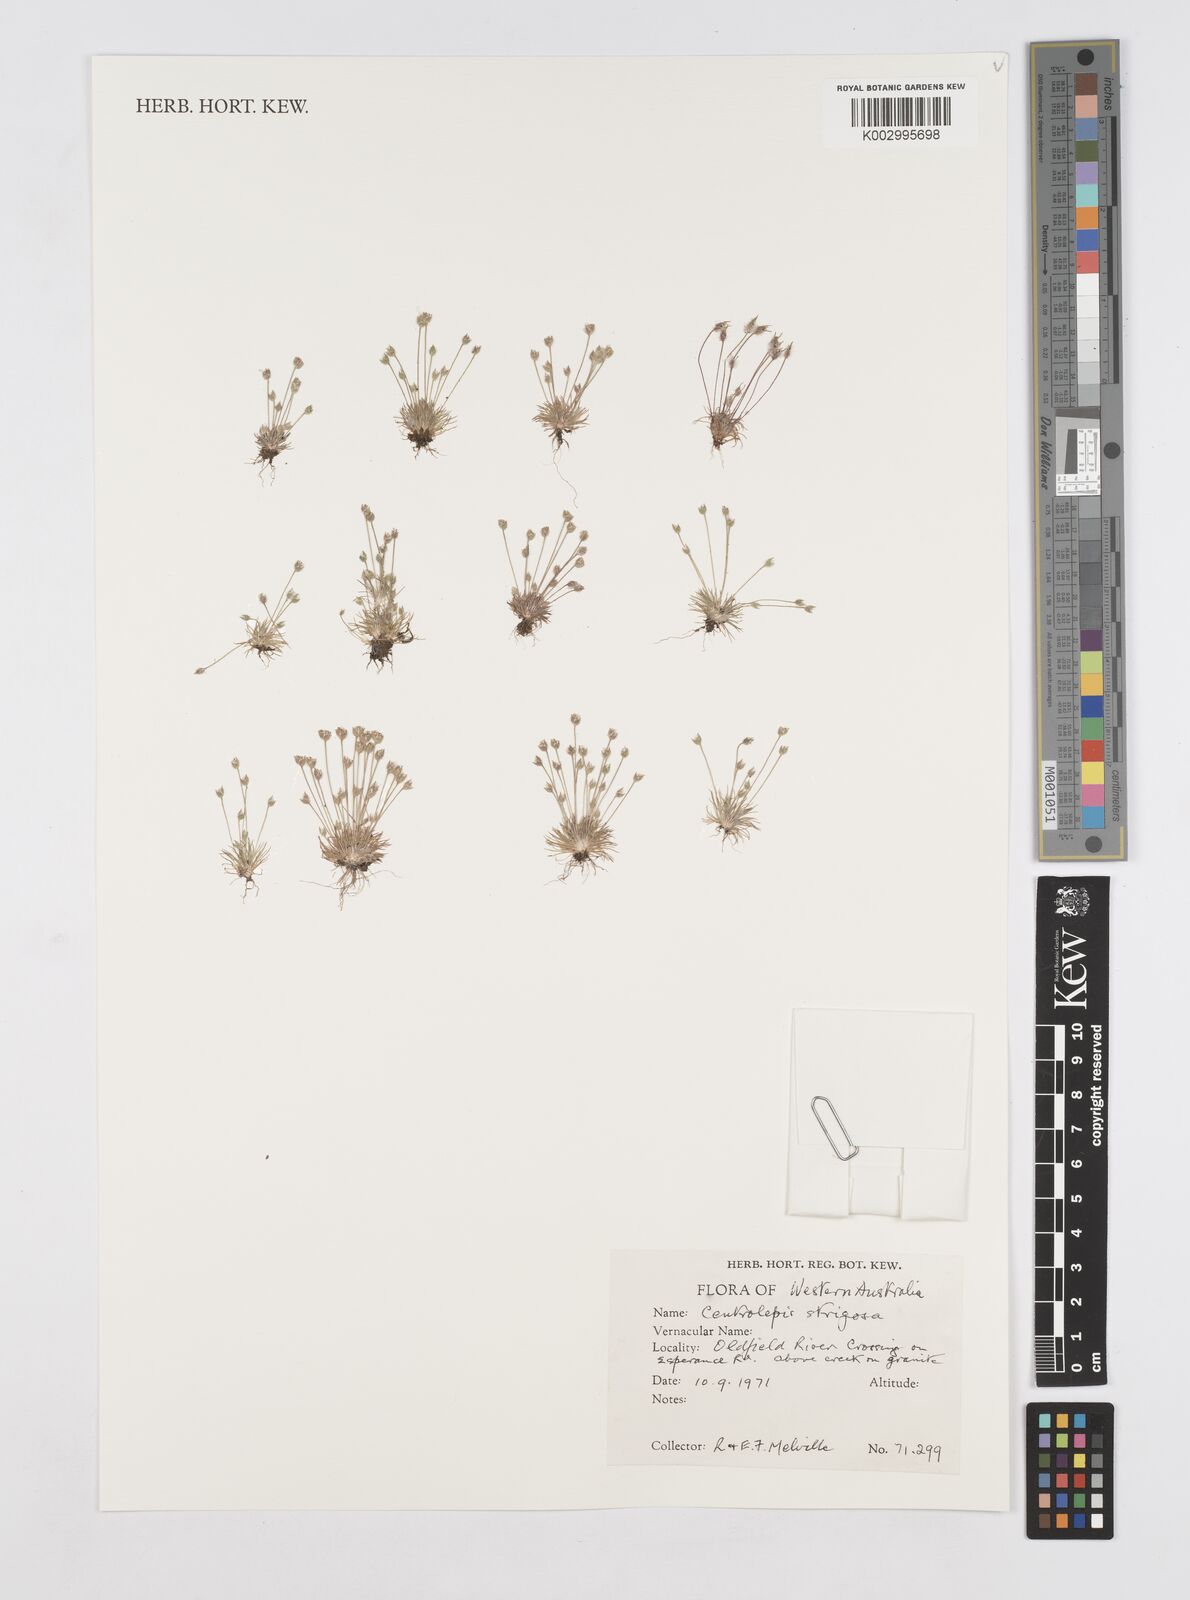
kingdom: Plantae
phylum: Tracheophyta
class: Liliopsida
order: Poales
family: Restionaceae
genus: Centrolepis
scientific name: Centrolepis strigosa
